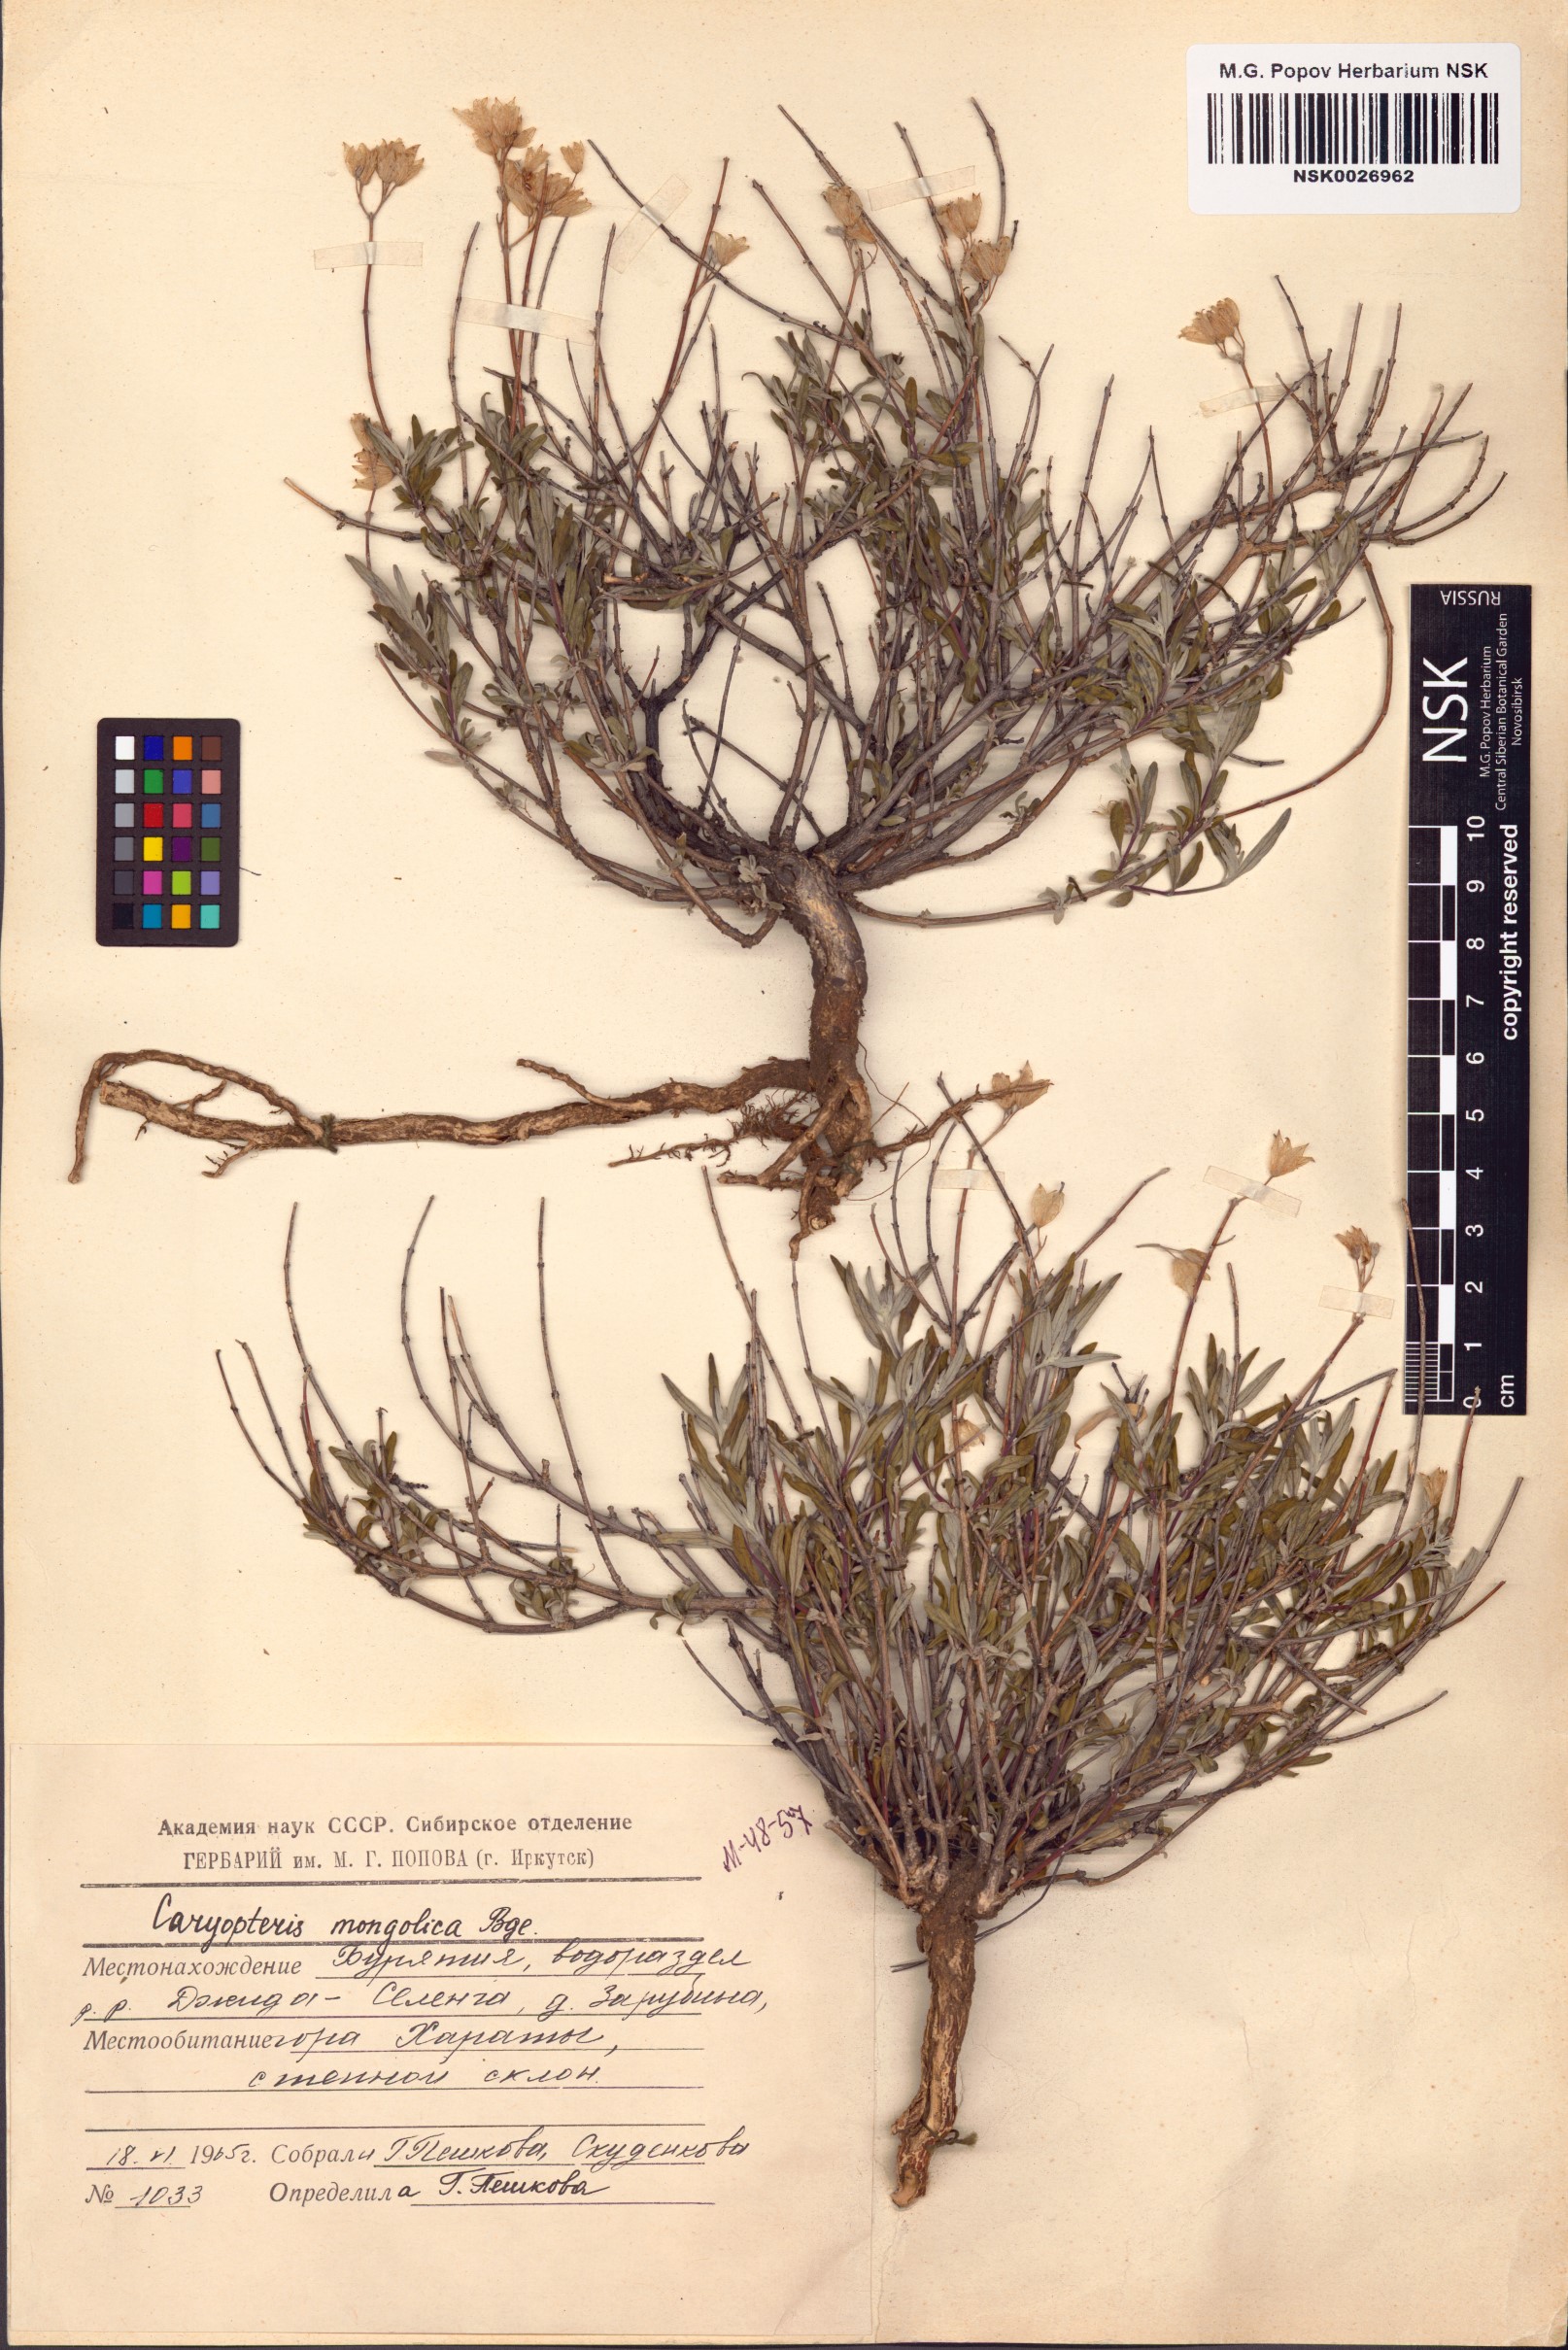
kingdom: Plantae
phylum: Tracheophyta
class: Magnoliopsida
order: Lamiales
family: Lamiaceae
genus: Caryopteris
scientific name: Caryopteris mongholica
